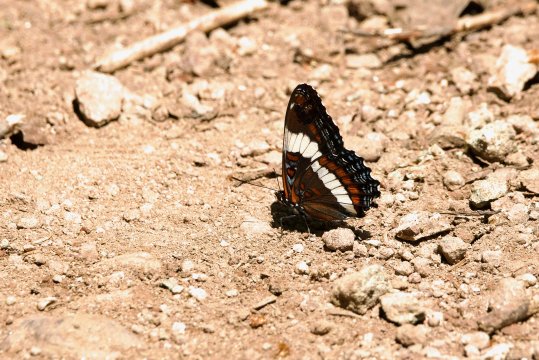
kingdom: Animalia
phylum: Arthropoda
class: Insecta
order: Lepidoptera
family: Nymphalidae
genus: Limenitis
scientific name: Limenitis arthemis
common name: Red-spotted Admiral
